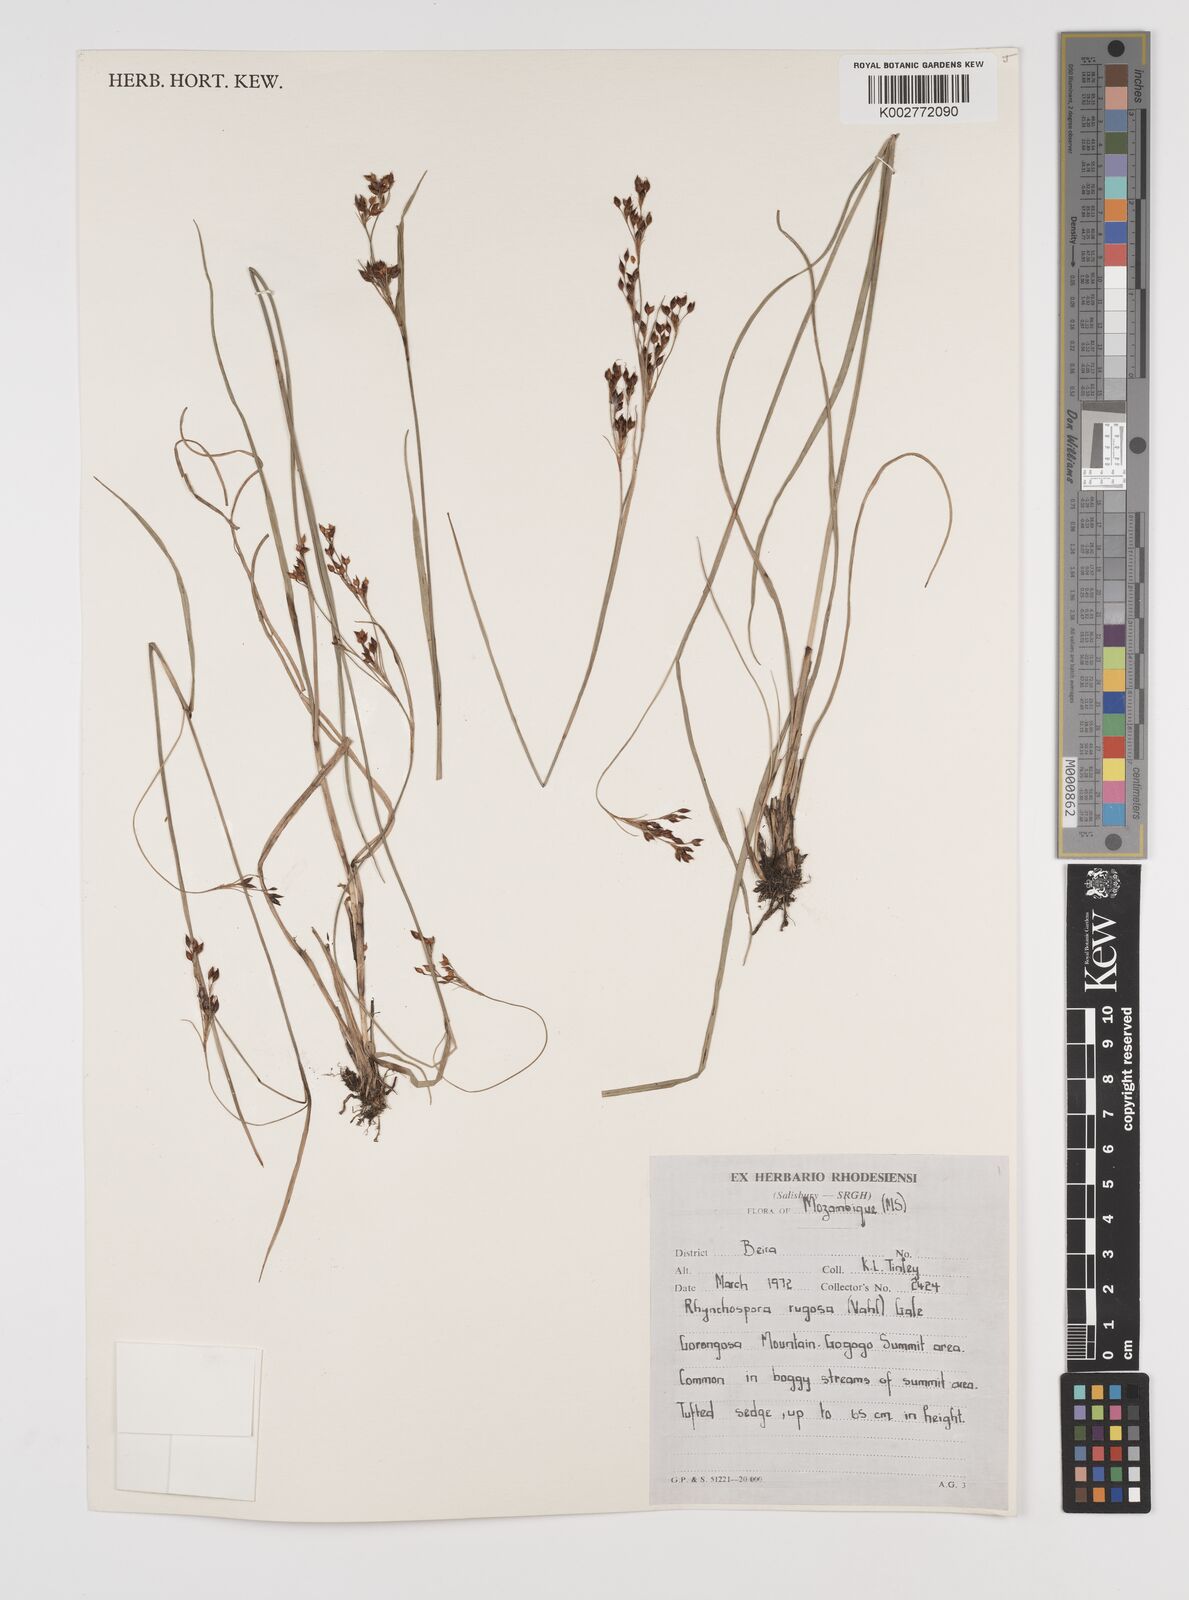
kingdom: Plantae
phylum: Tracheophyta
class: Liliopsida
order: Poales
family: Cyperaceae
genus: Rhynchospora
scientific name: Rhynchospora rugosa
